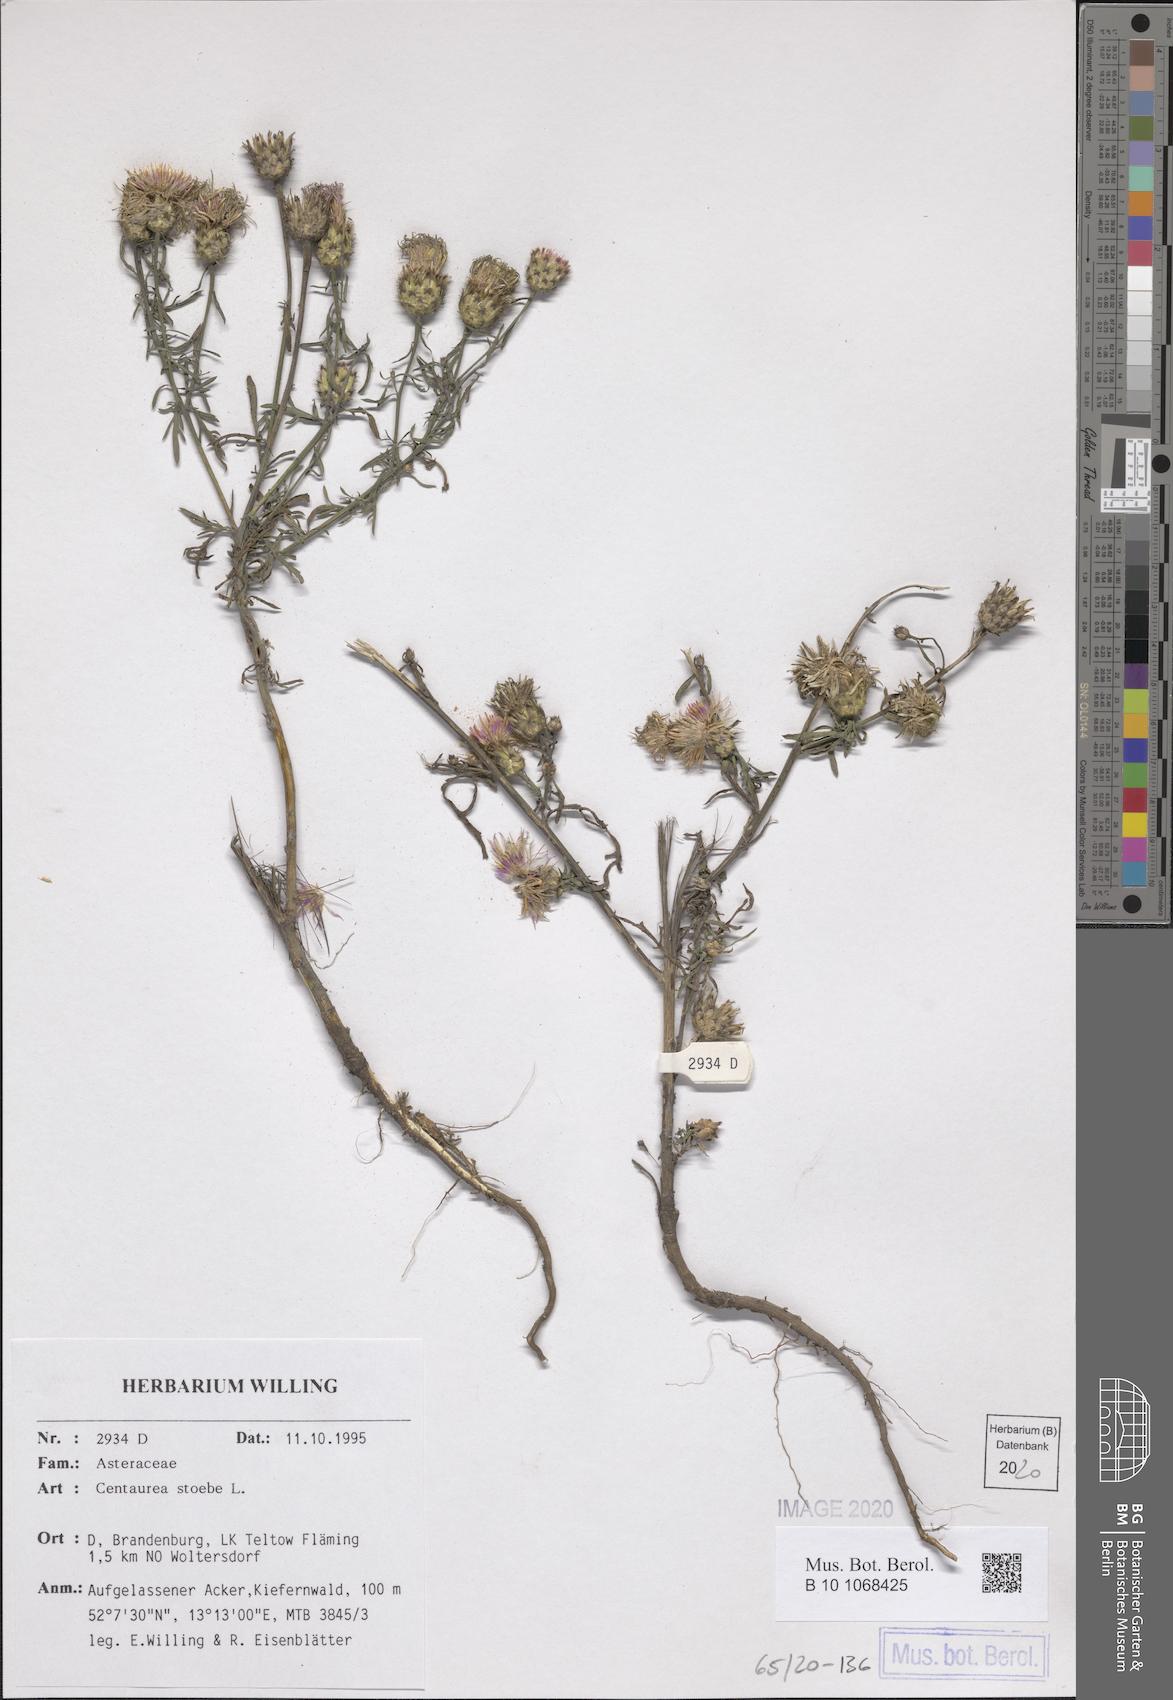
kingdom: Plantae
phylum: Tracheophyta
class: Magnoliopsida
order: Asterales
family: Asteraceae
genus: Centaurea
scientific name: Centaurea stoebe
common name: Spotted knapweed
